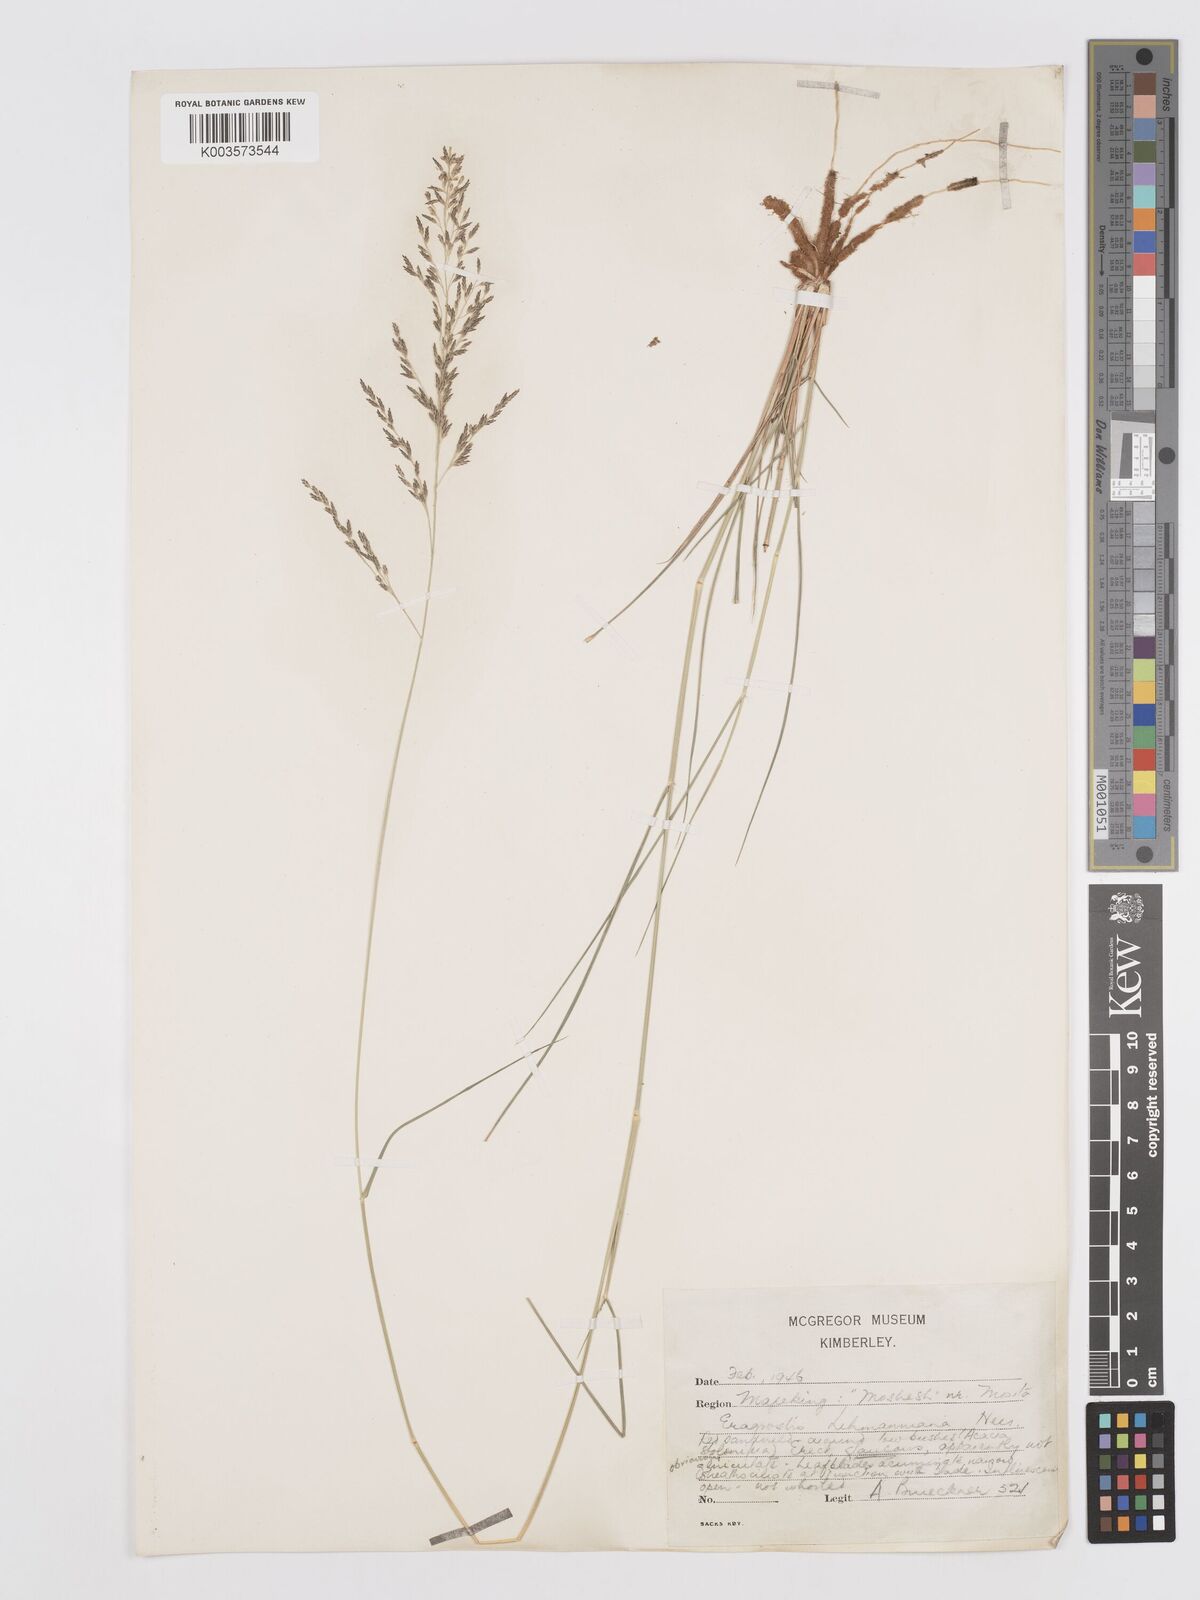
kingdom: Plantae
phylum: Tracheophyta
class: Liliopsida
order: Poales
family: Poaceae
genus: Eragrostis
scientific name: Eragrostis lehmanniana
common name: Lehmann lovegrass
